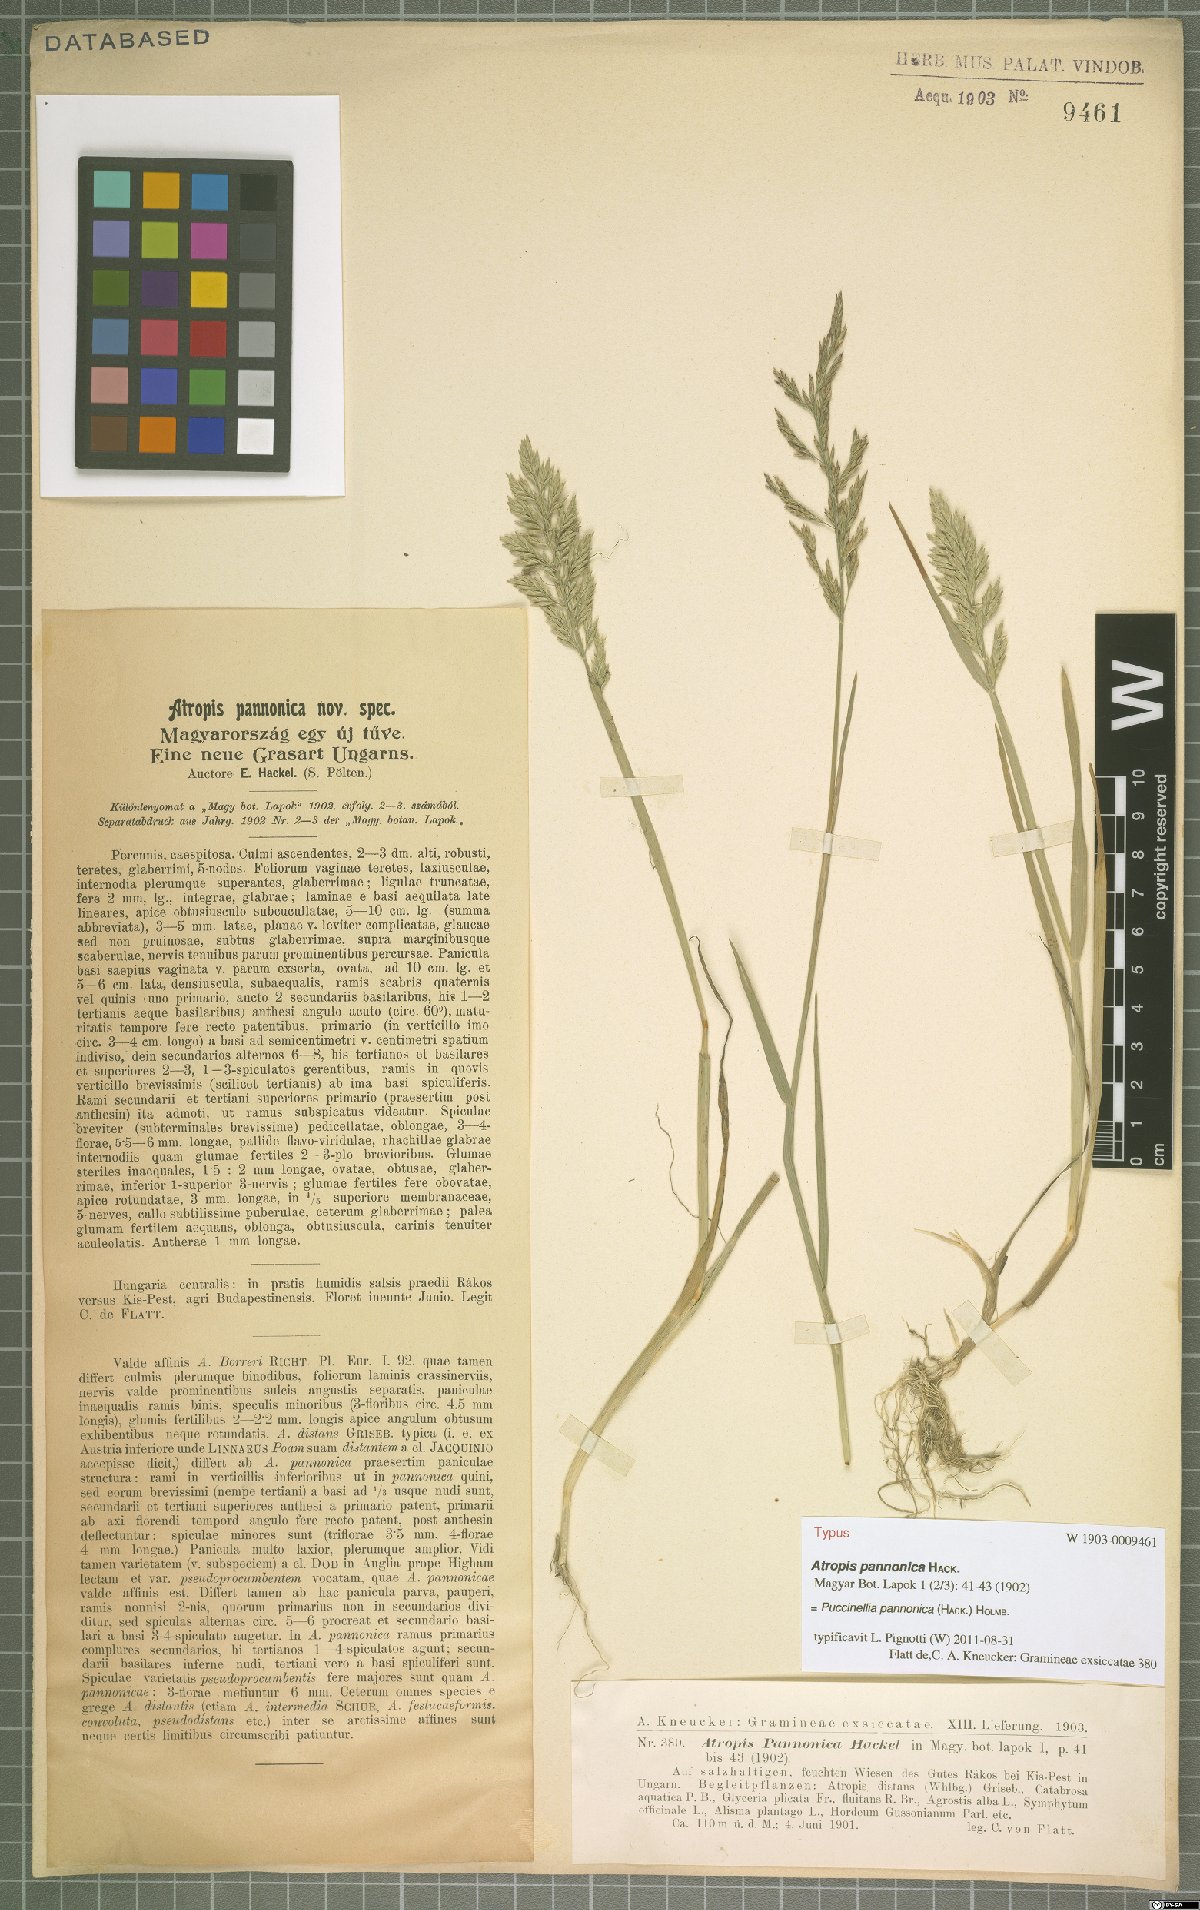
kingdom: Plantae
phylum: Tracheophyta
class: Liliopsida
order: Poales
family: Poaceae
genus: Puccinellia
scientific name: Puccinellia pannonica
